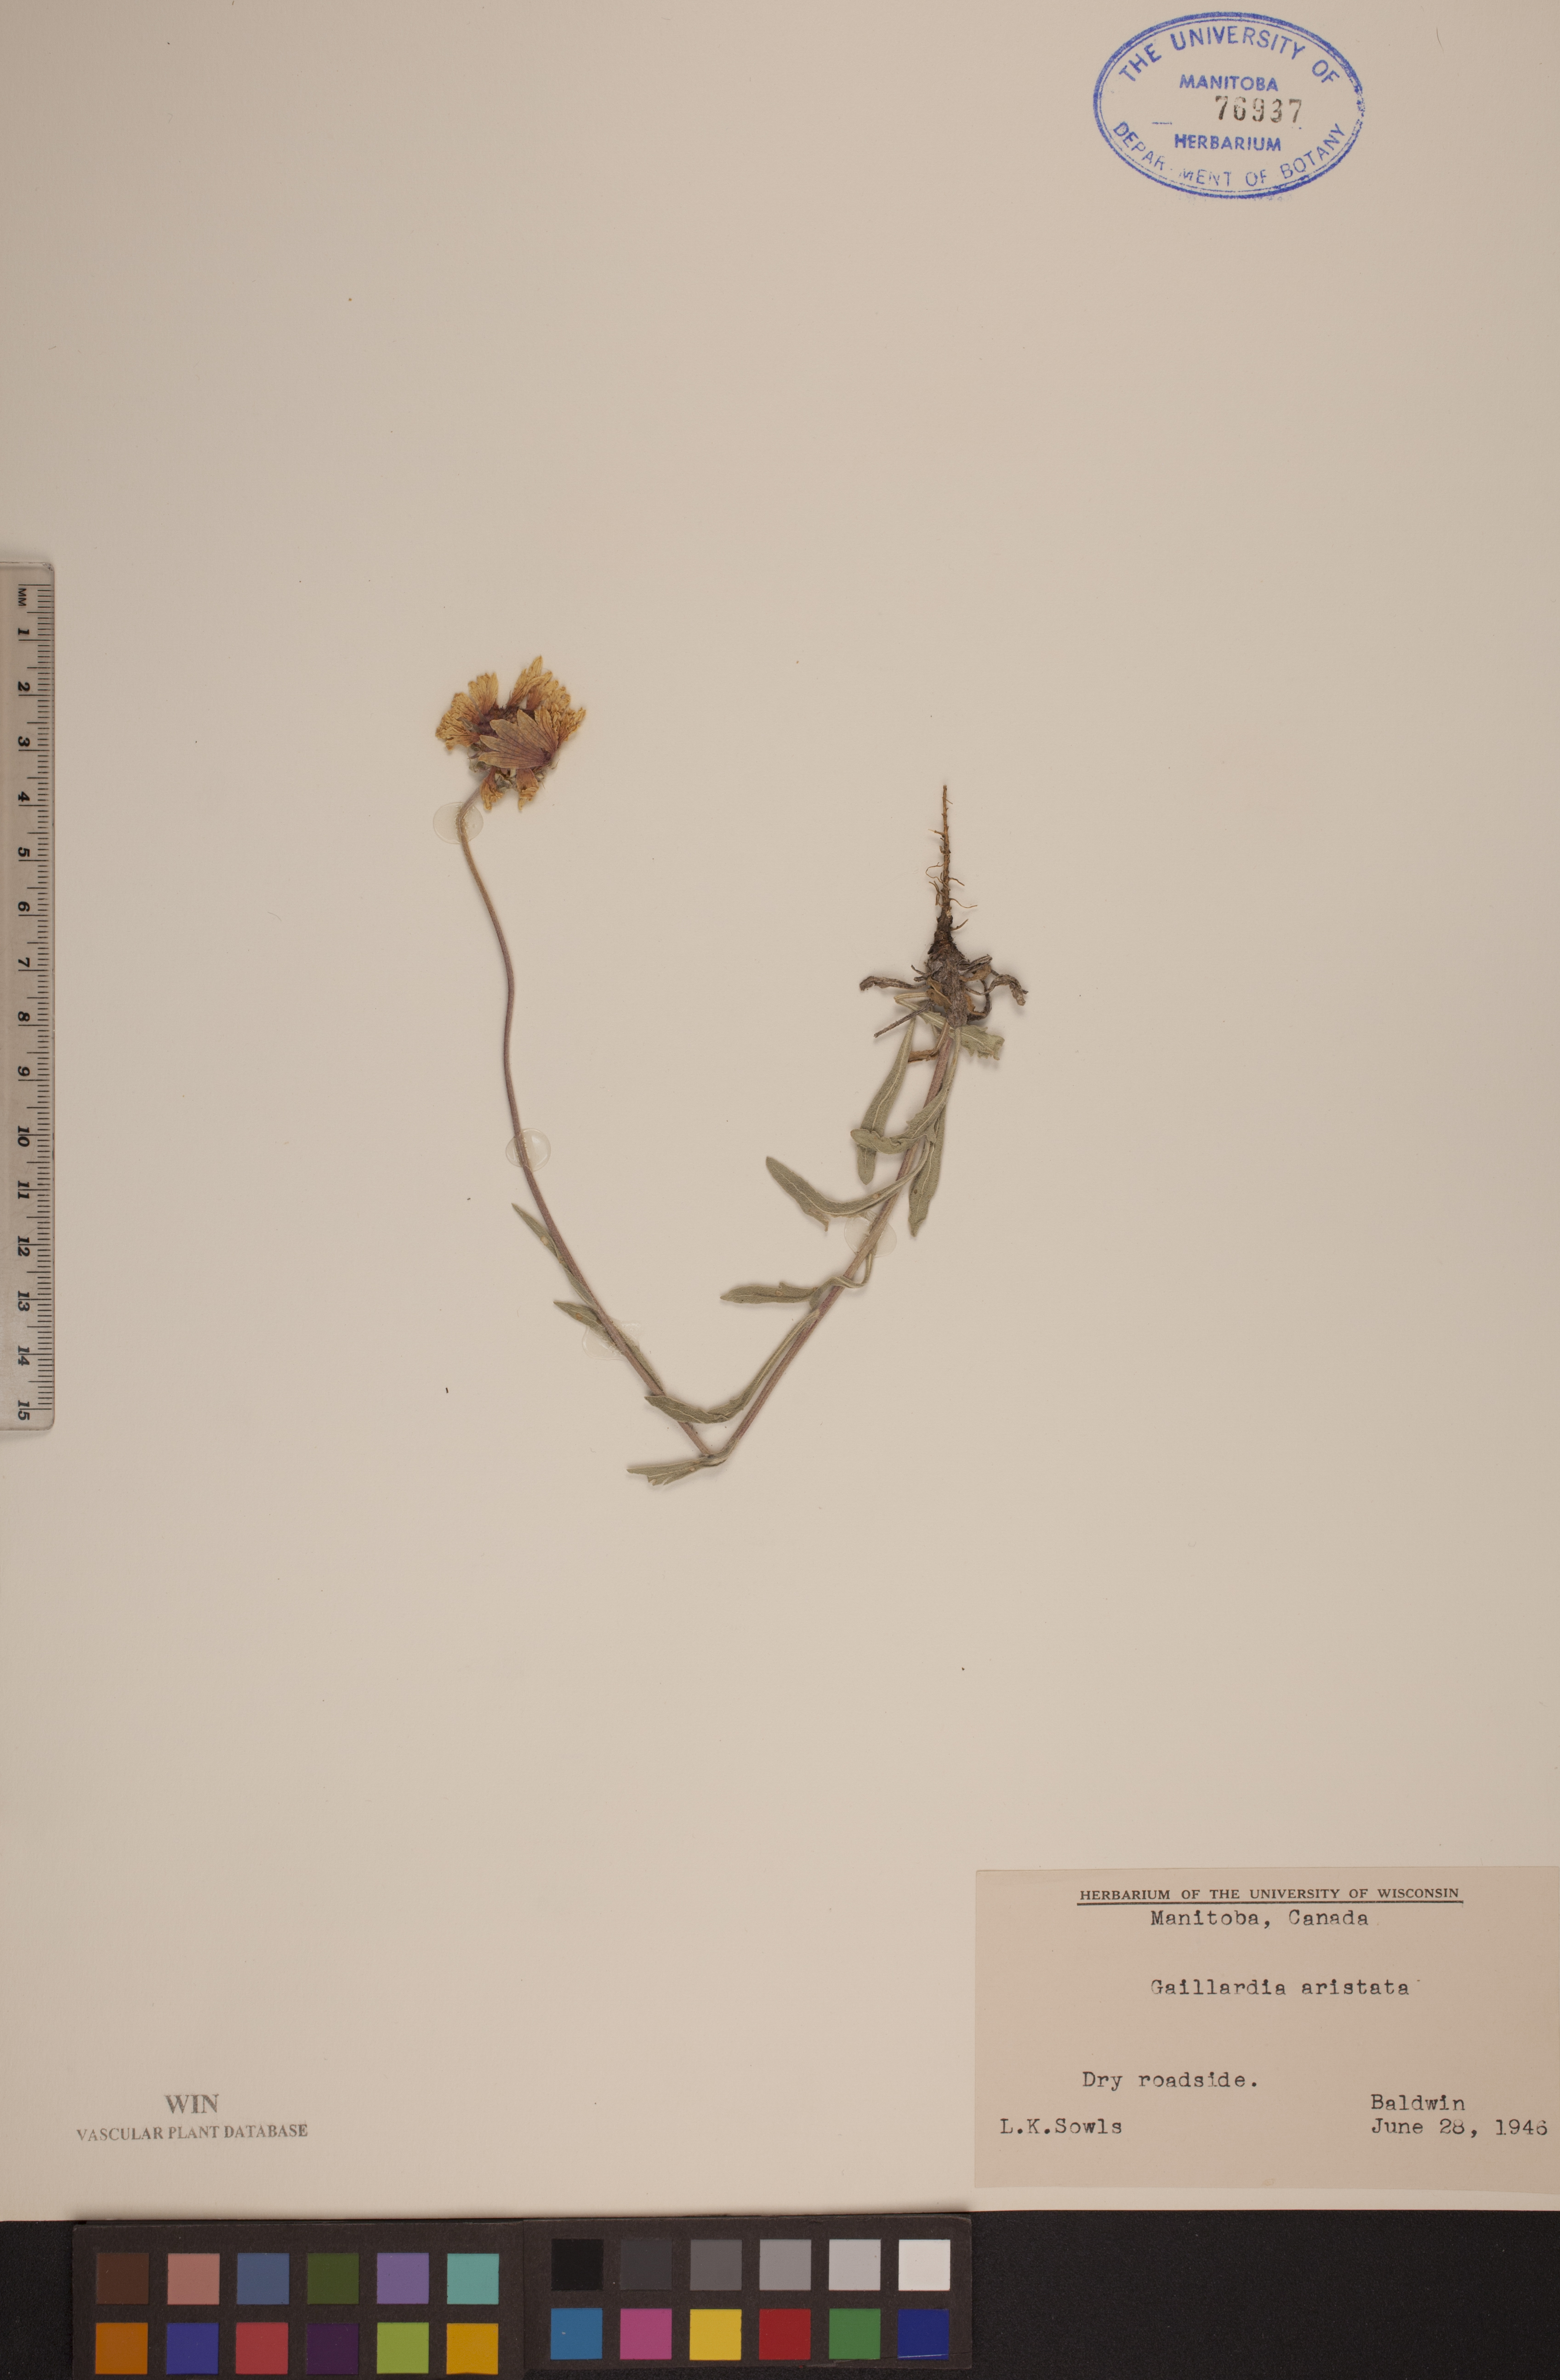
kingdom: Plantae
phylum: Tracheophyta
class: Magnoliopsida
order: Asterales
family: Asteraceae
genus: Gaillardia
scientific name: Gaillardia aristata
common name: Blanket-flower
